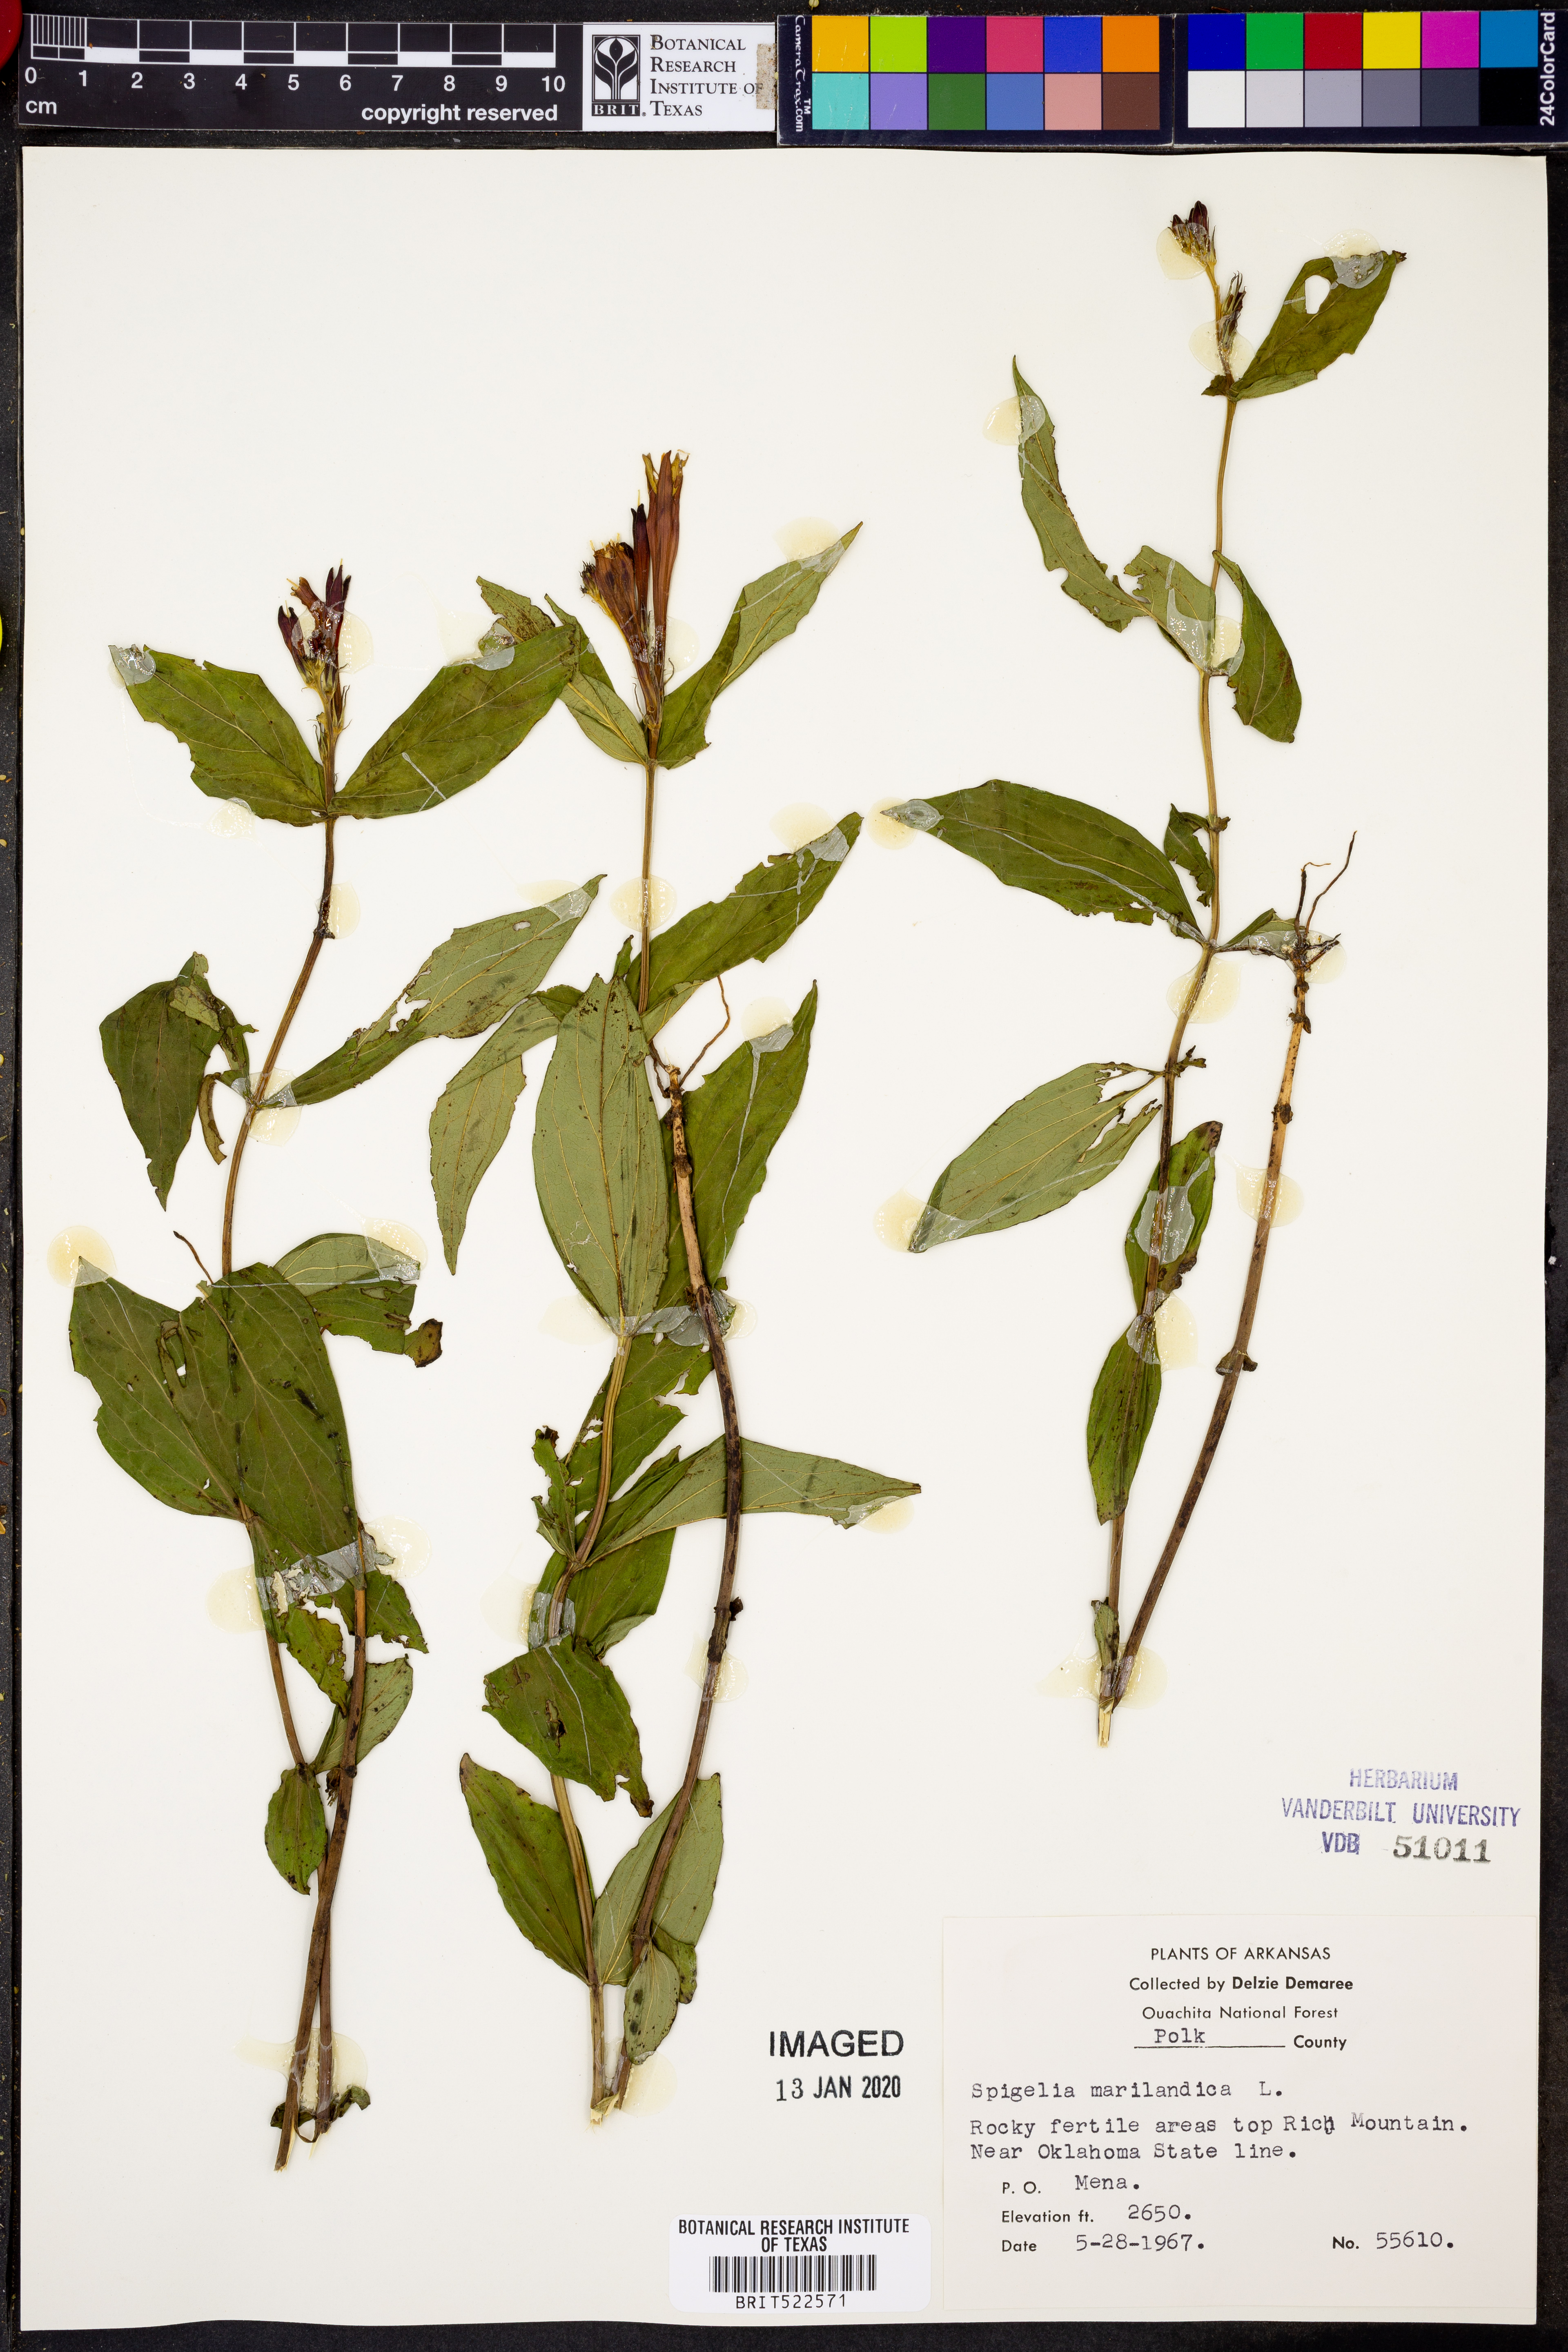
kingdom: Plantae
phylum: Tracheophyta
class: Magnoliopsida
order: Gentianales
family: Loganiaceae
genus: Spigelia
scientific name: Spigelia marilandica
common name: Indian-pink
